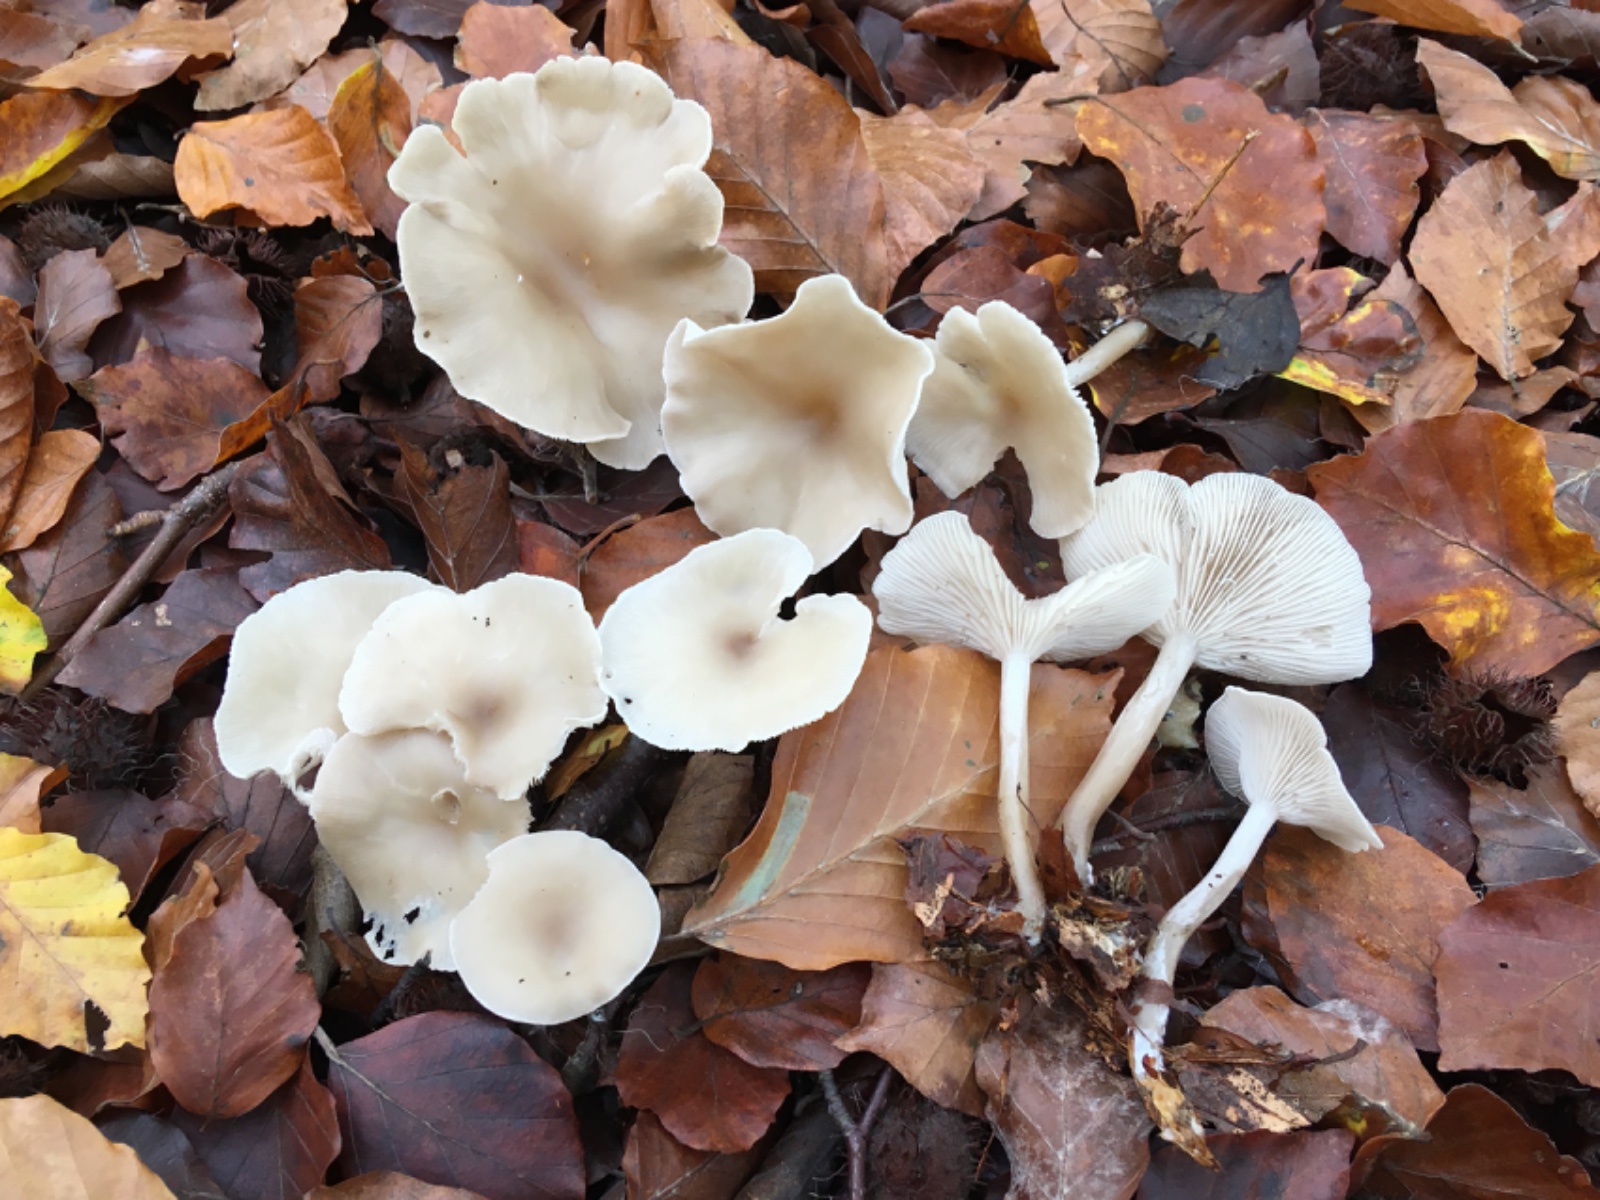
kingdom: Fungi
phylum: Basidiomycota
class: Agaricomycetes
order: Agaricales
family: Tricholomataceae
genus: Clitocybe
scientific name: Clitocybe metachroa
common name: grå tragthat
